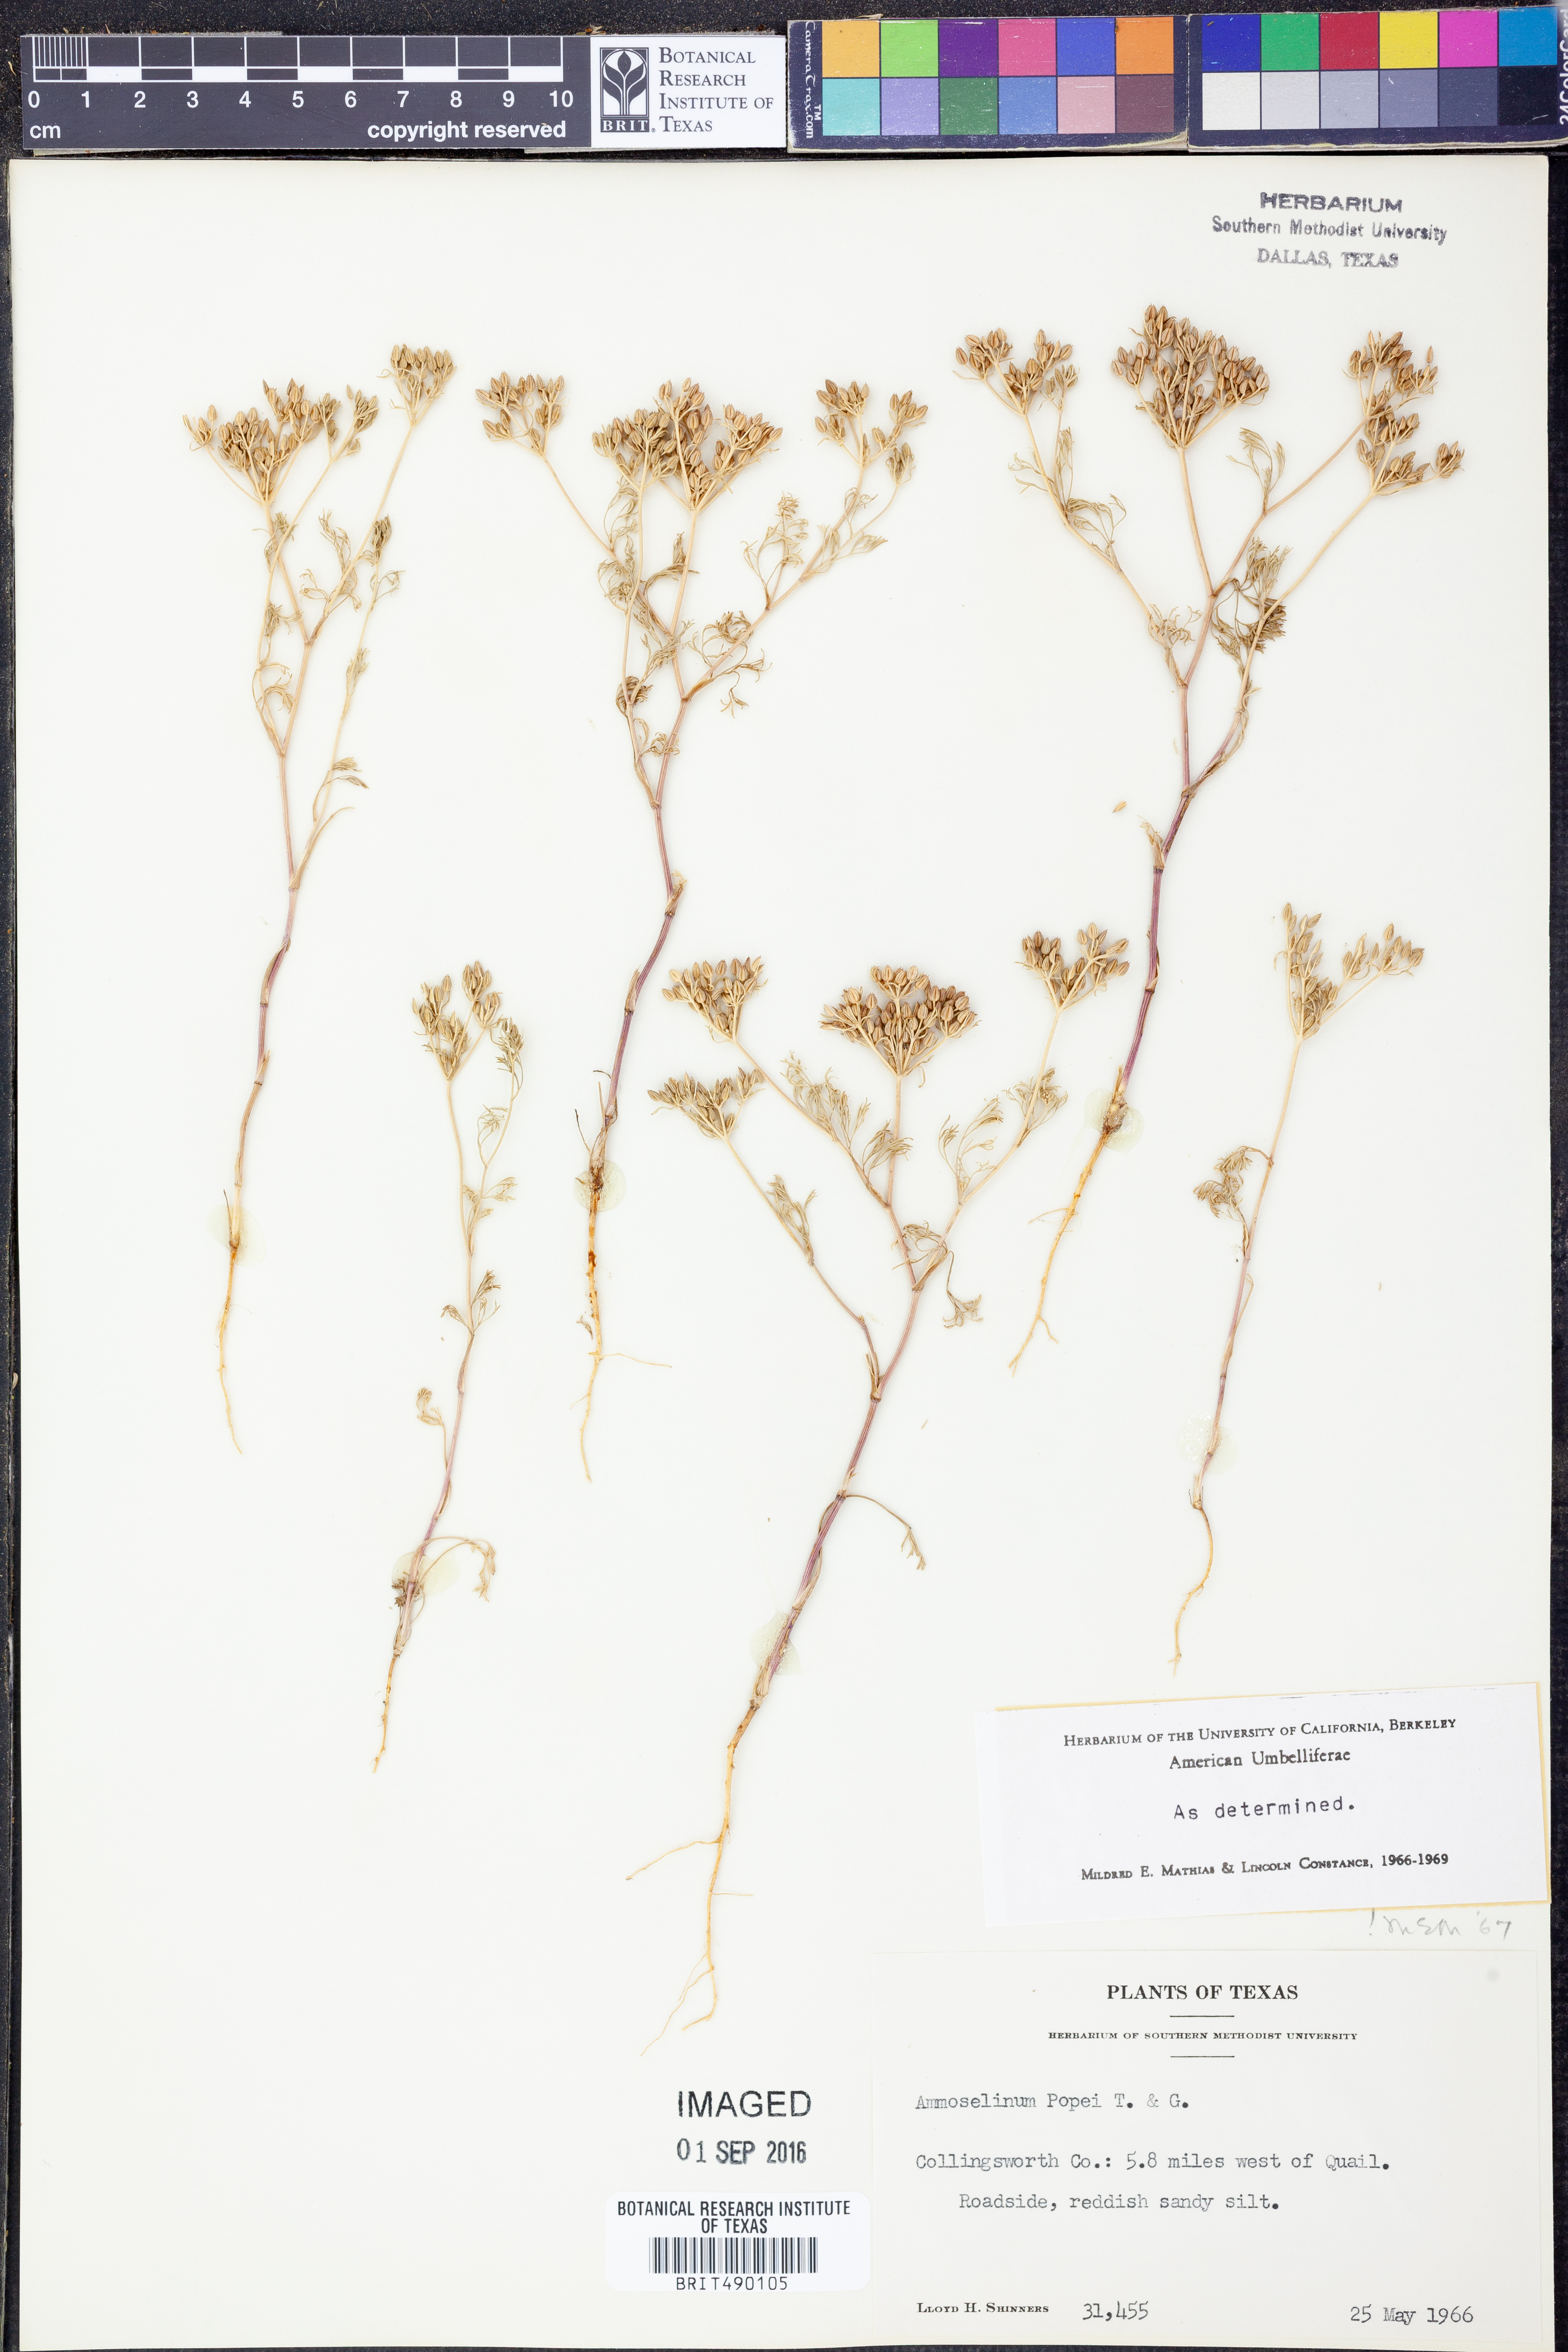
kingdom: Plantae
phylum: Tracheophyta
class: Magnoliopsida
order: Apiales
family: Apiaceae
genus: Ammoselinum
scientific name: Ammoselinum popei
